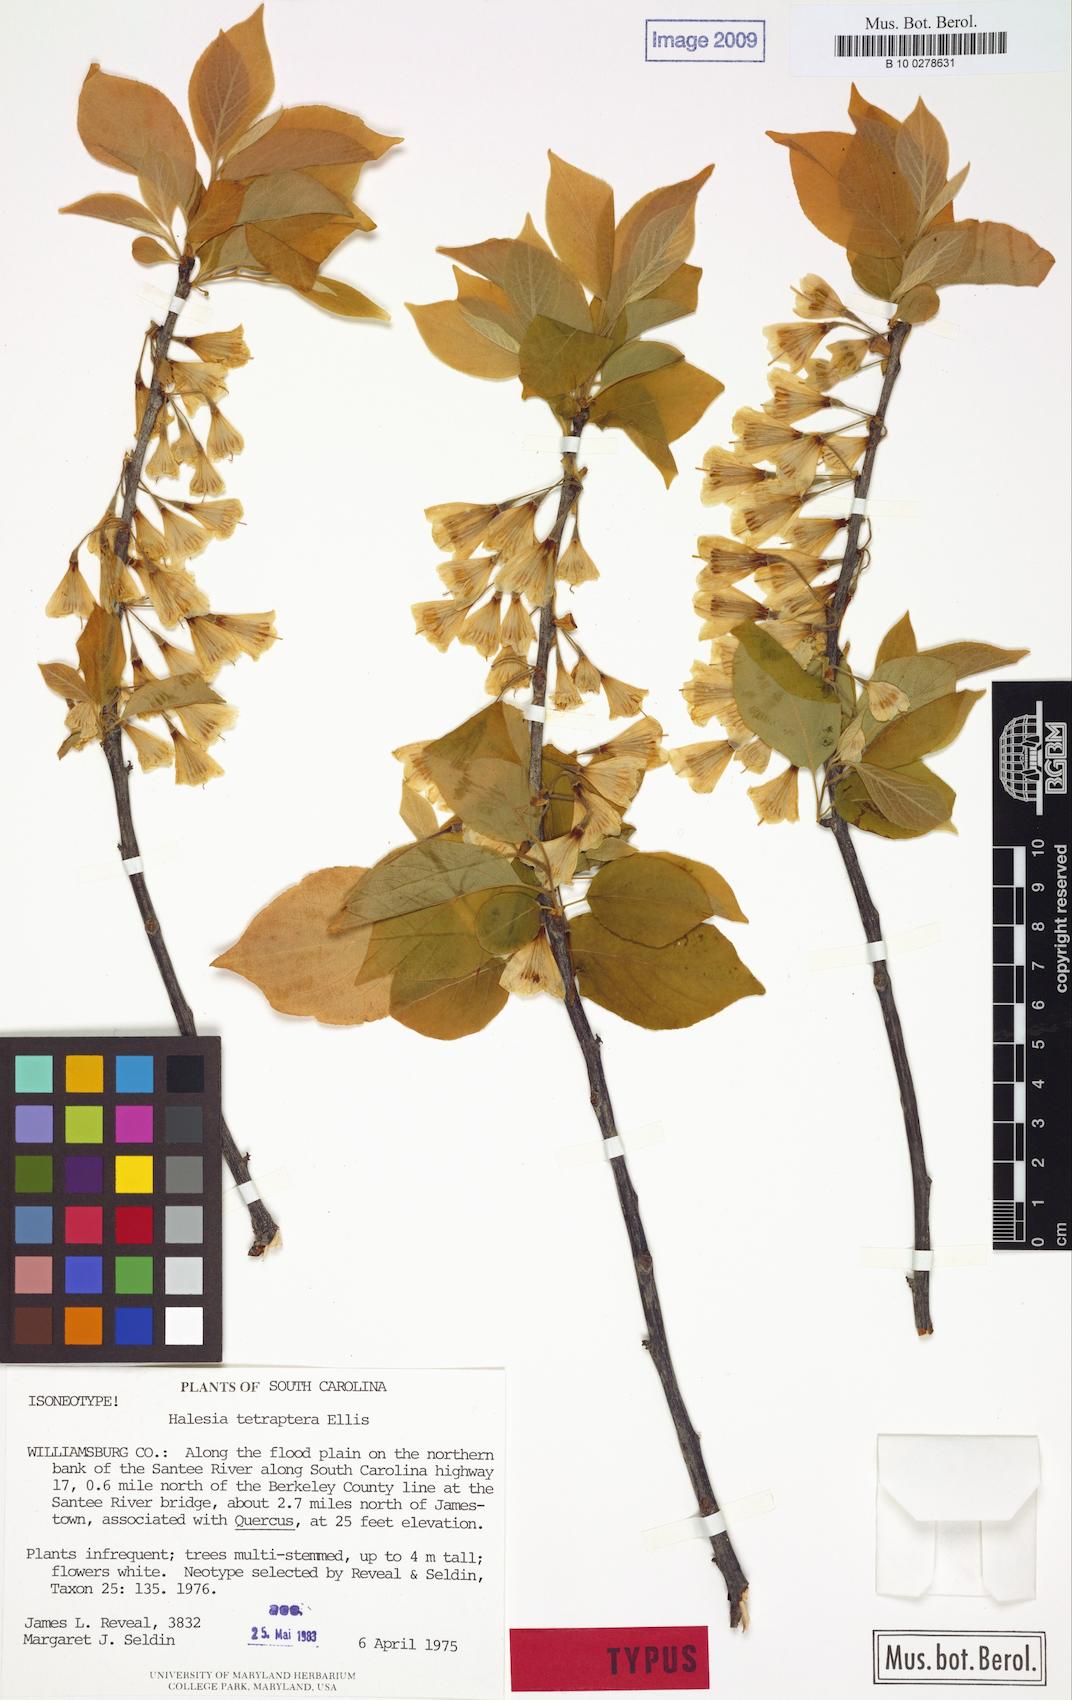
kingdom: Plantae
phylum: Tracheophyta
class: Magnoliopsida
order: Ericales
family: Styracaceae
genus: Halesia
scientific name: Halesia tetraptera
